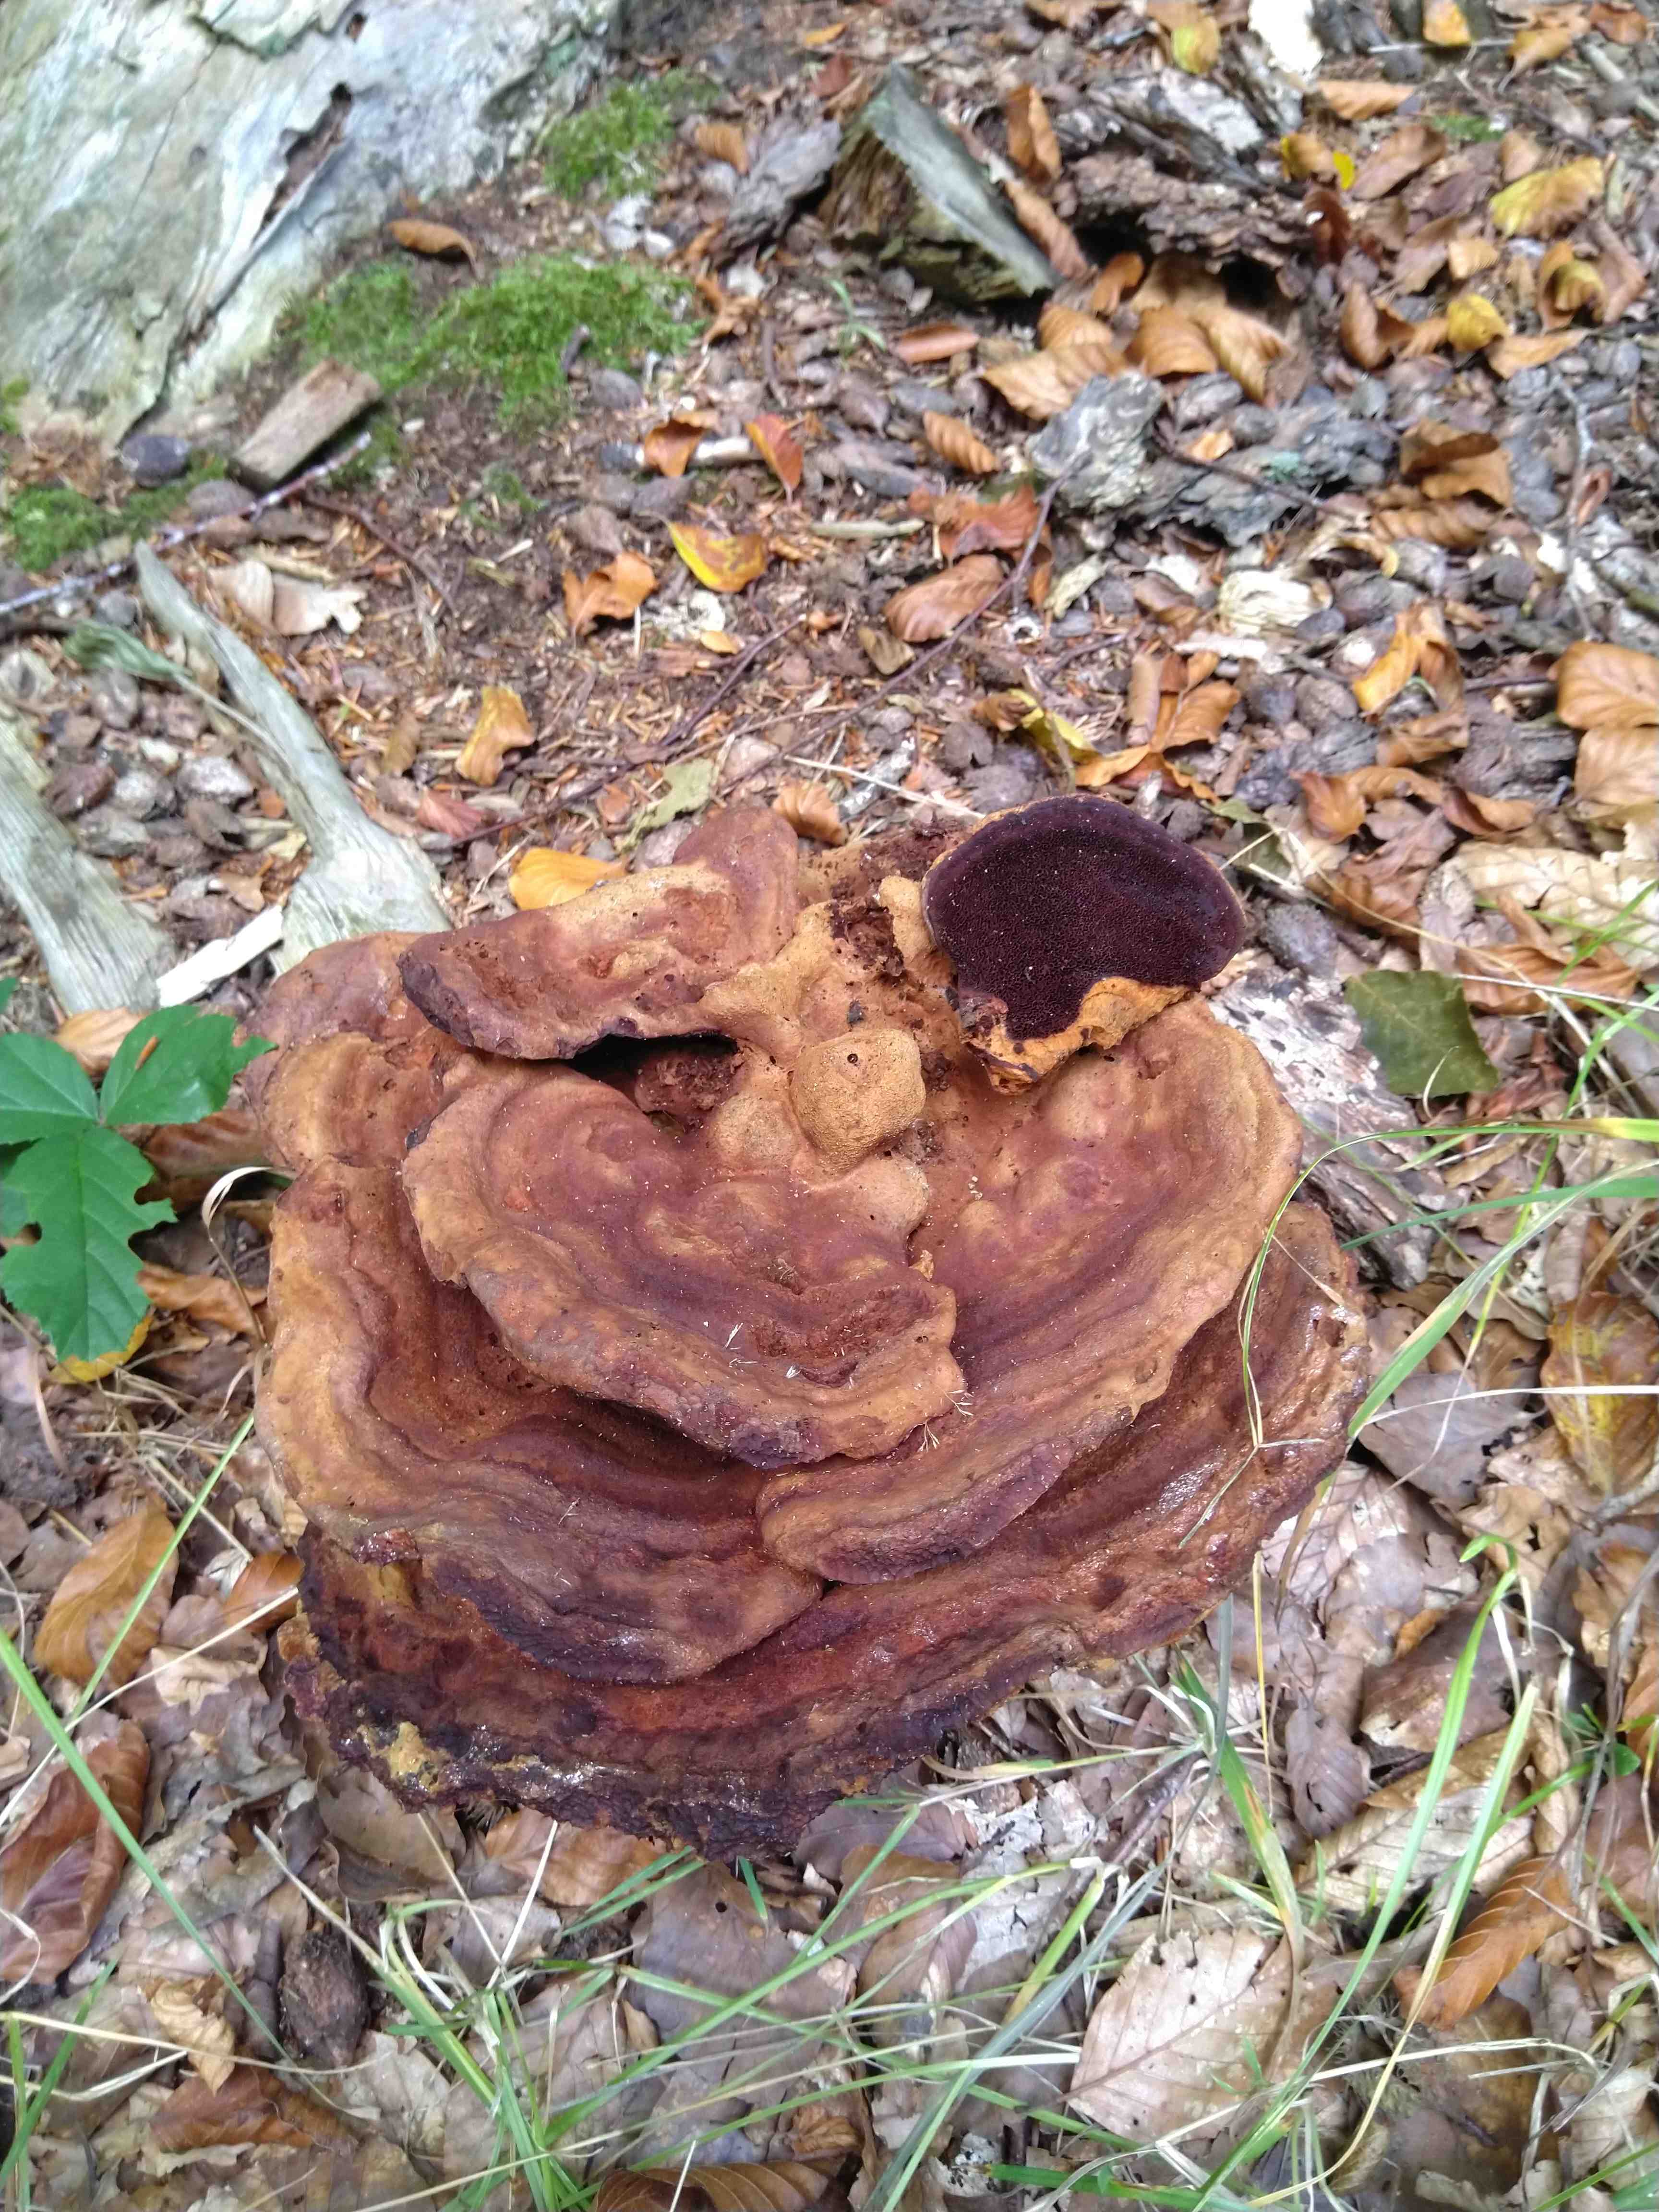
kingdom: Fungi
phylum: Basidiomycota
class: Agaricomycetes
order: Polyporales
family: Laetiporaceae
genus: Phaeolus
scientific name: Phaeolus schweinitzii
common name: brunporesvamp
